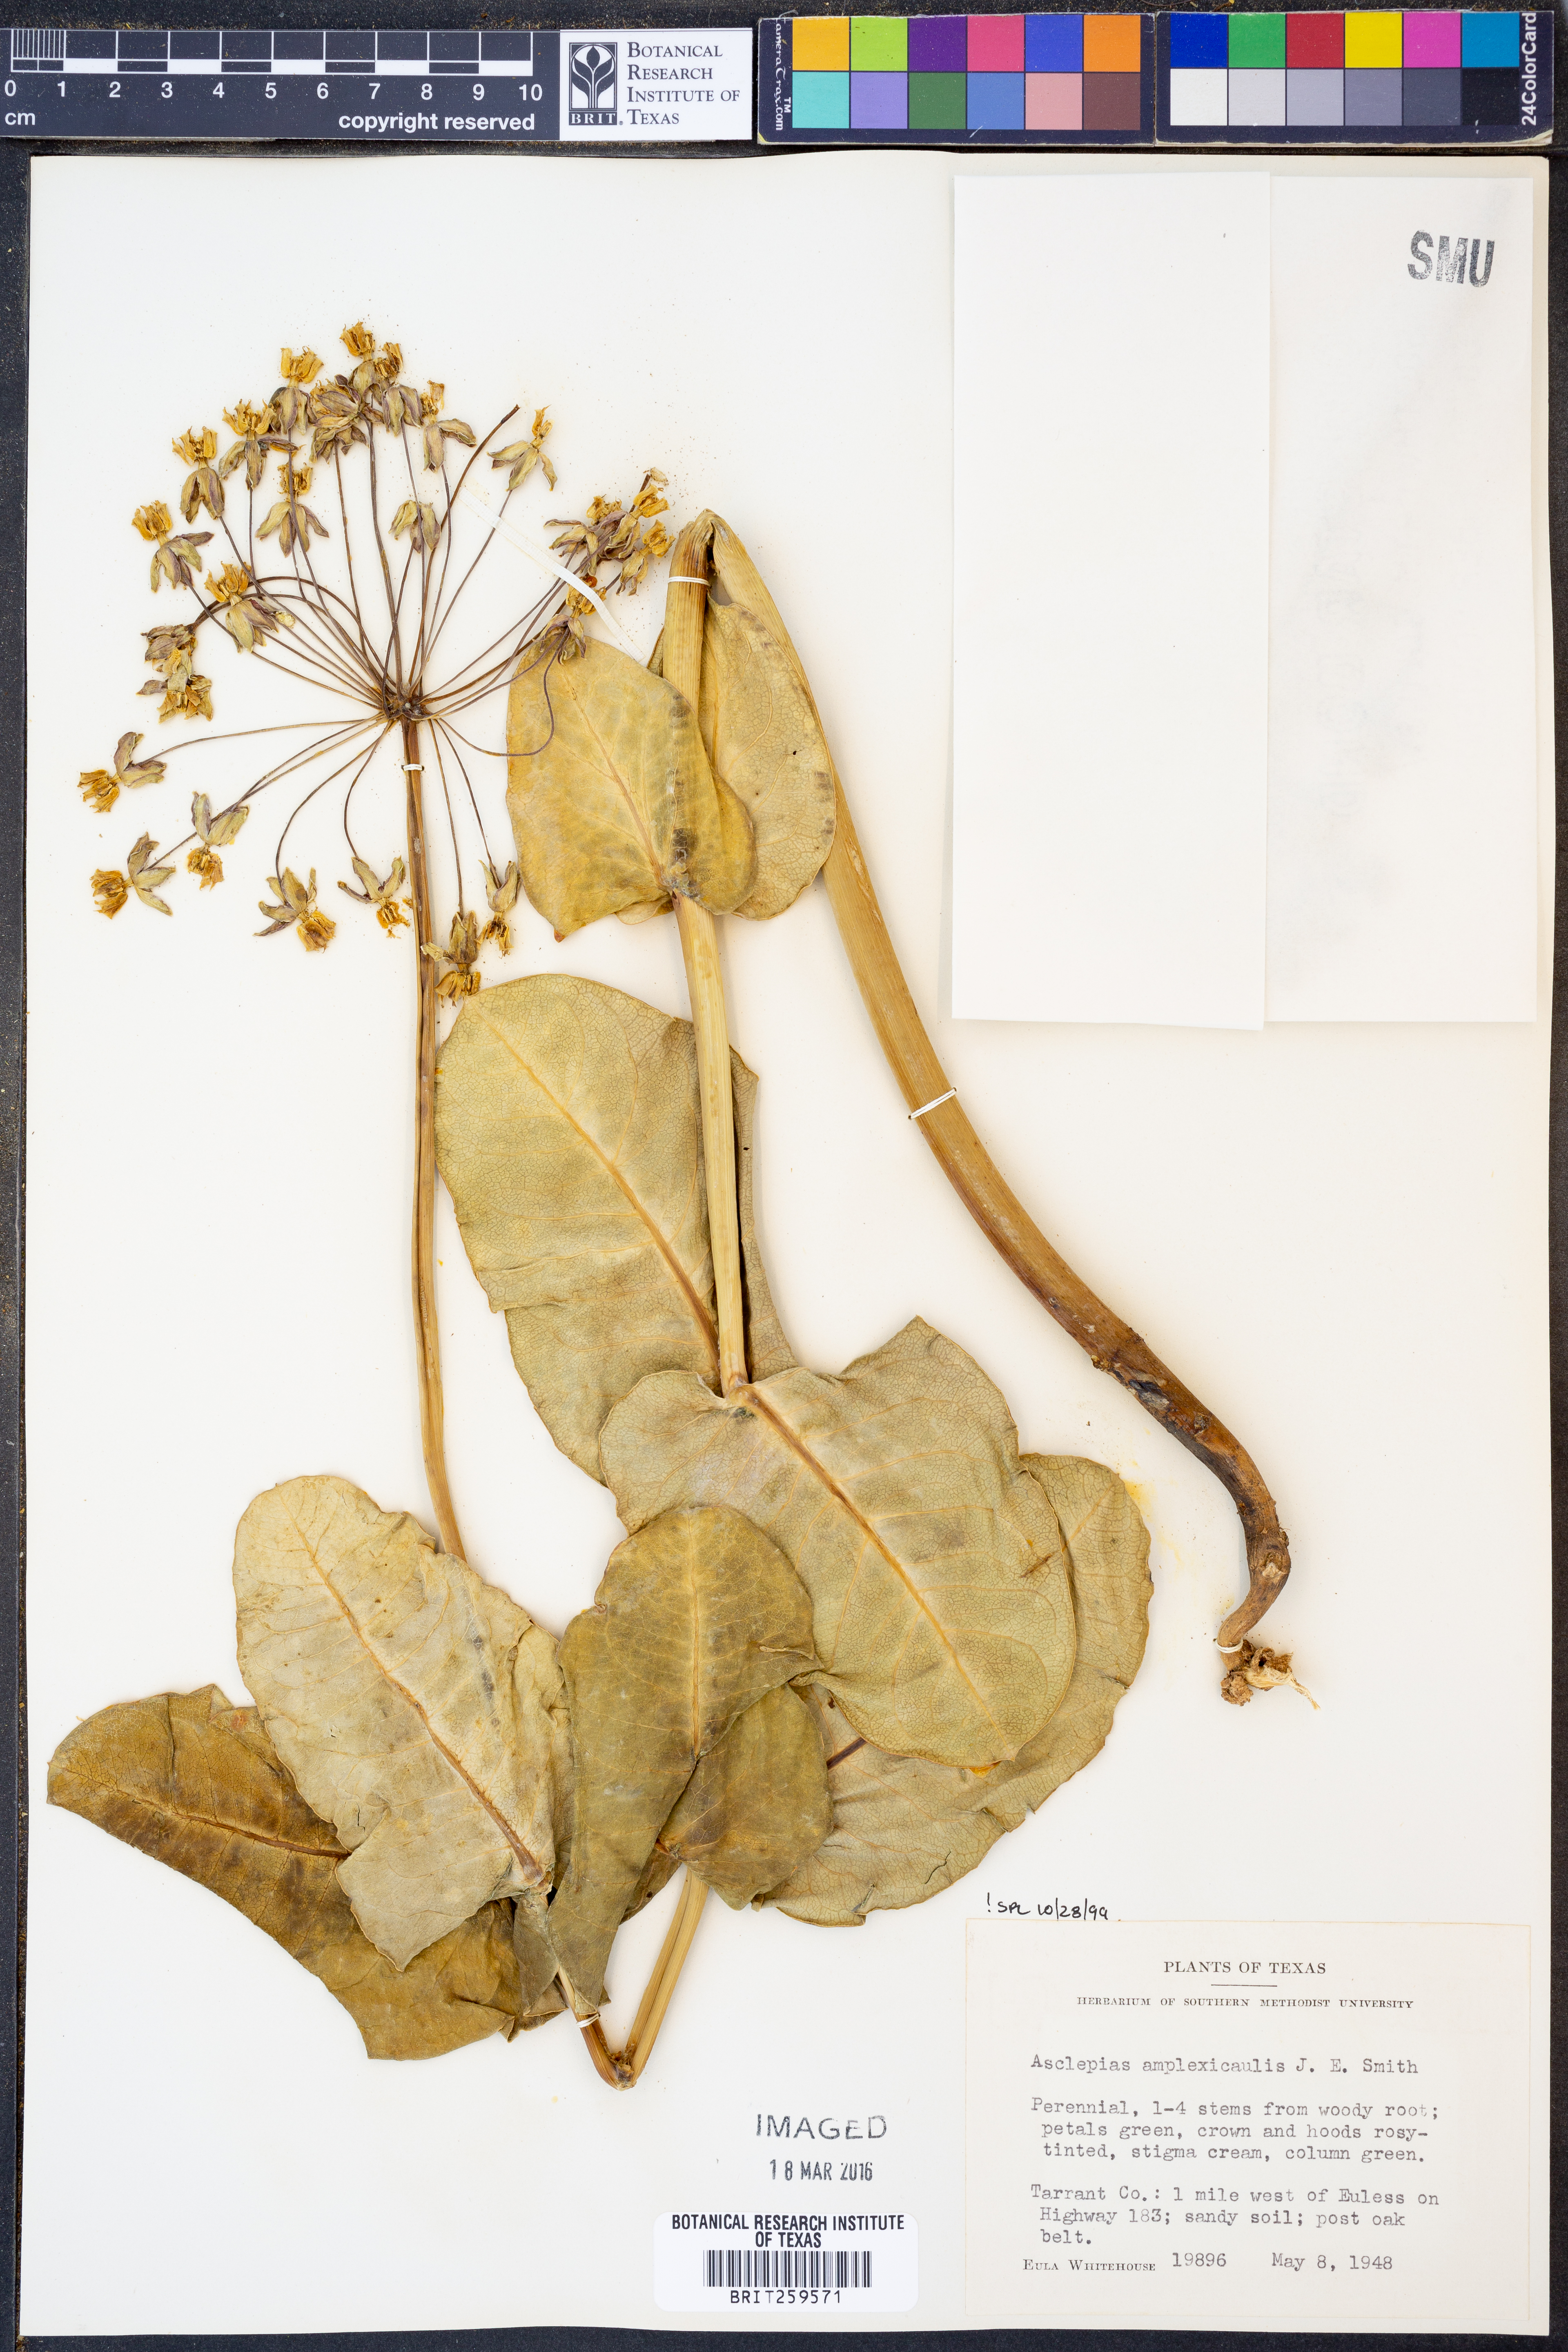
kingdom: Plantae
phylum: Tracheophyta
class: Magnoliopsida
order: Gentianales
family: Apocynaceae
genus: Asclepias
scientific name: Asclepias amplexicaulis
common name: Blunt-leaf milkweed
